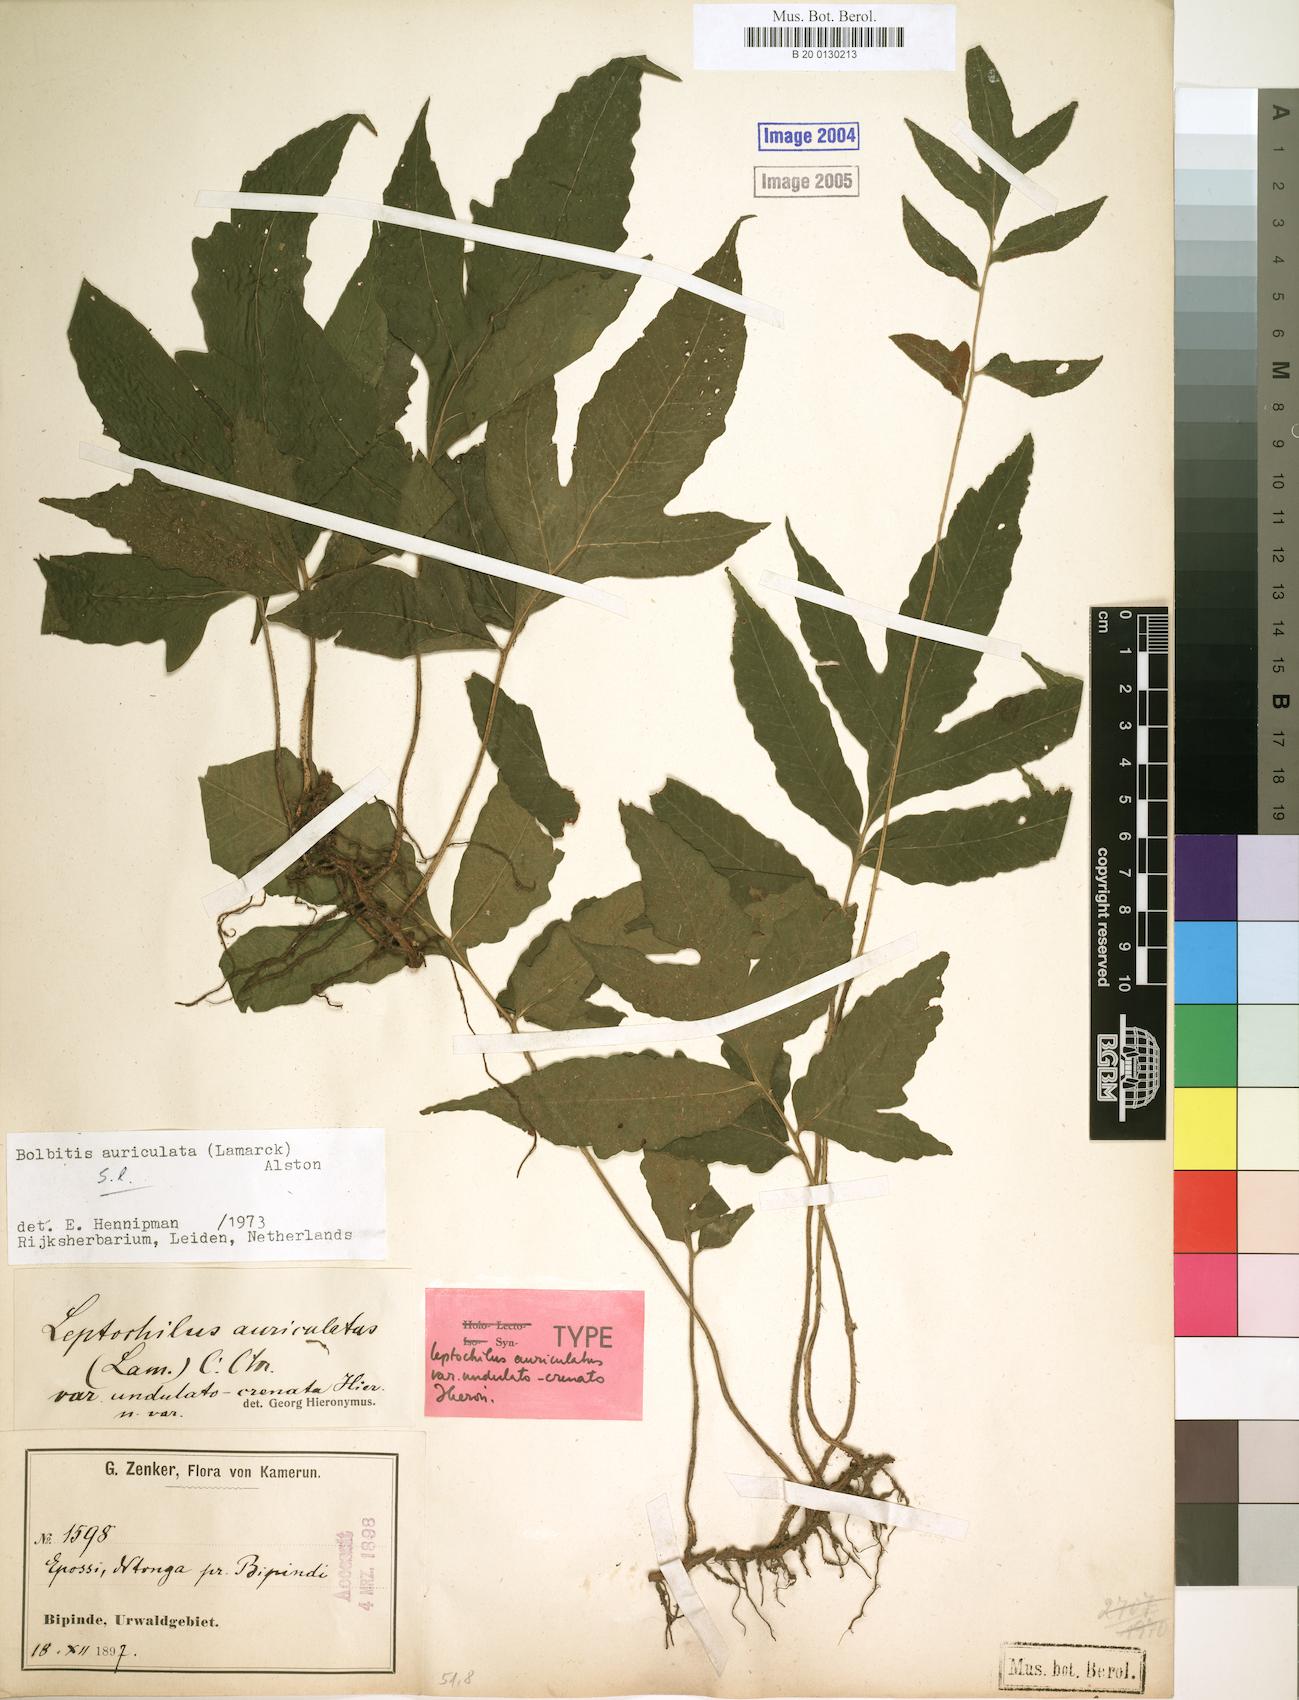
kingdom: Plantae
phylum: Tracheophyta
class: Polypodiopsida
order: Polypodiales
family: Dryopteridaceae
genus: Bolbitis
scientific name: Bolbitis auriculata
